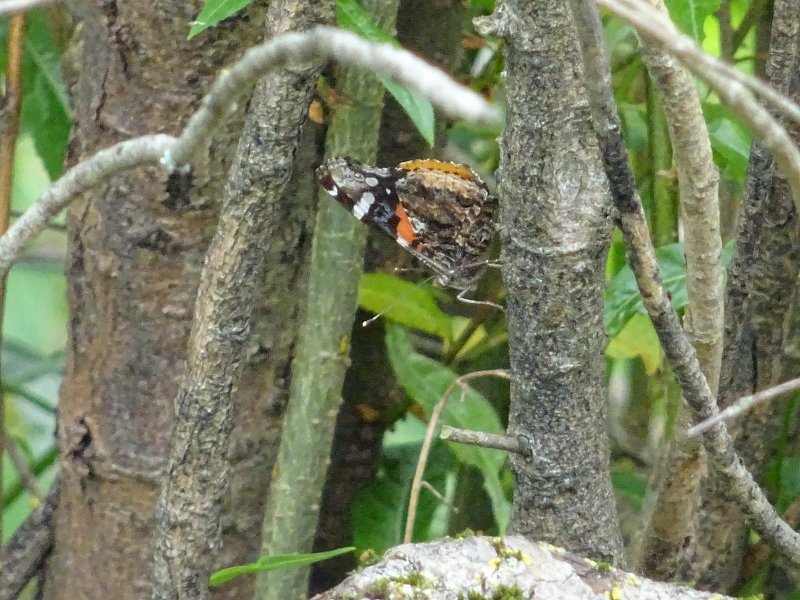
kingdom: Animalia
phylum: Arthropoda
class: Insecta
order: Lepidoptera
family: Nymphalidae
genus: Vanessa
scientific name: Vanessa atalanta
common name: Red Admiral
